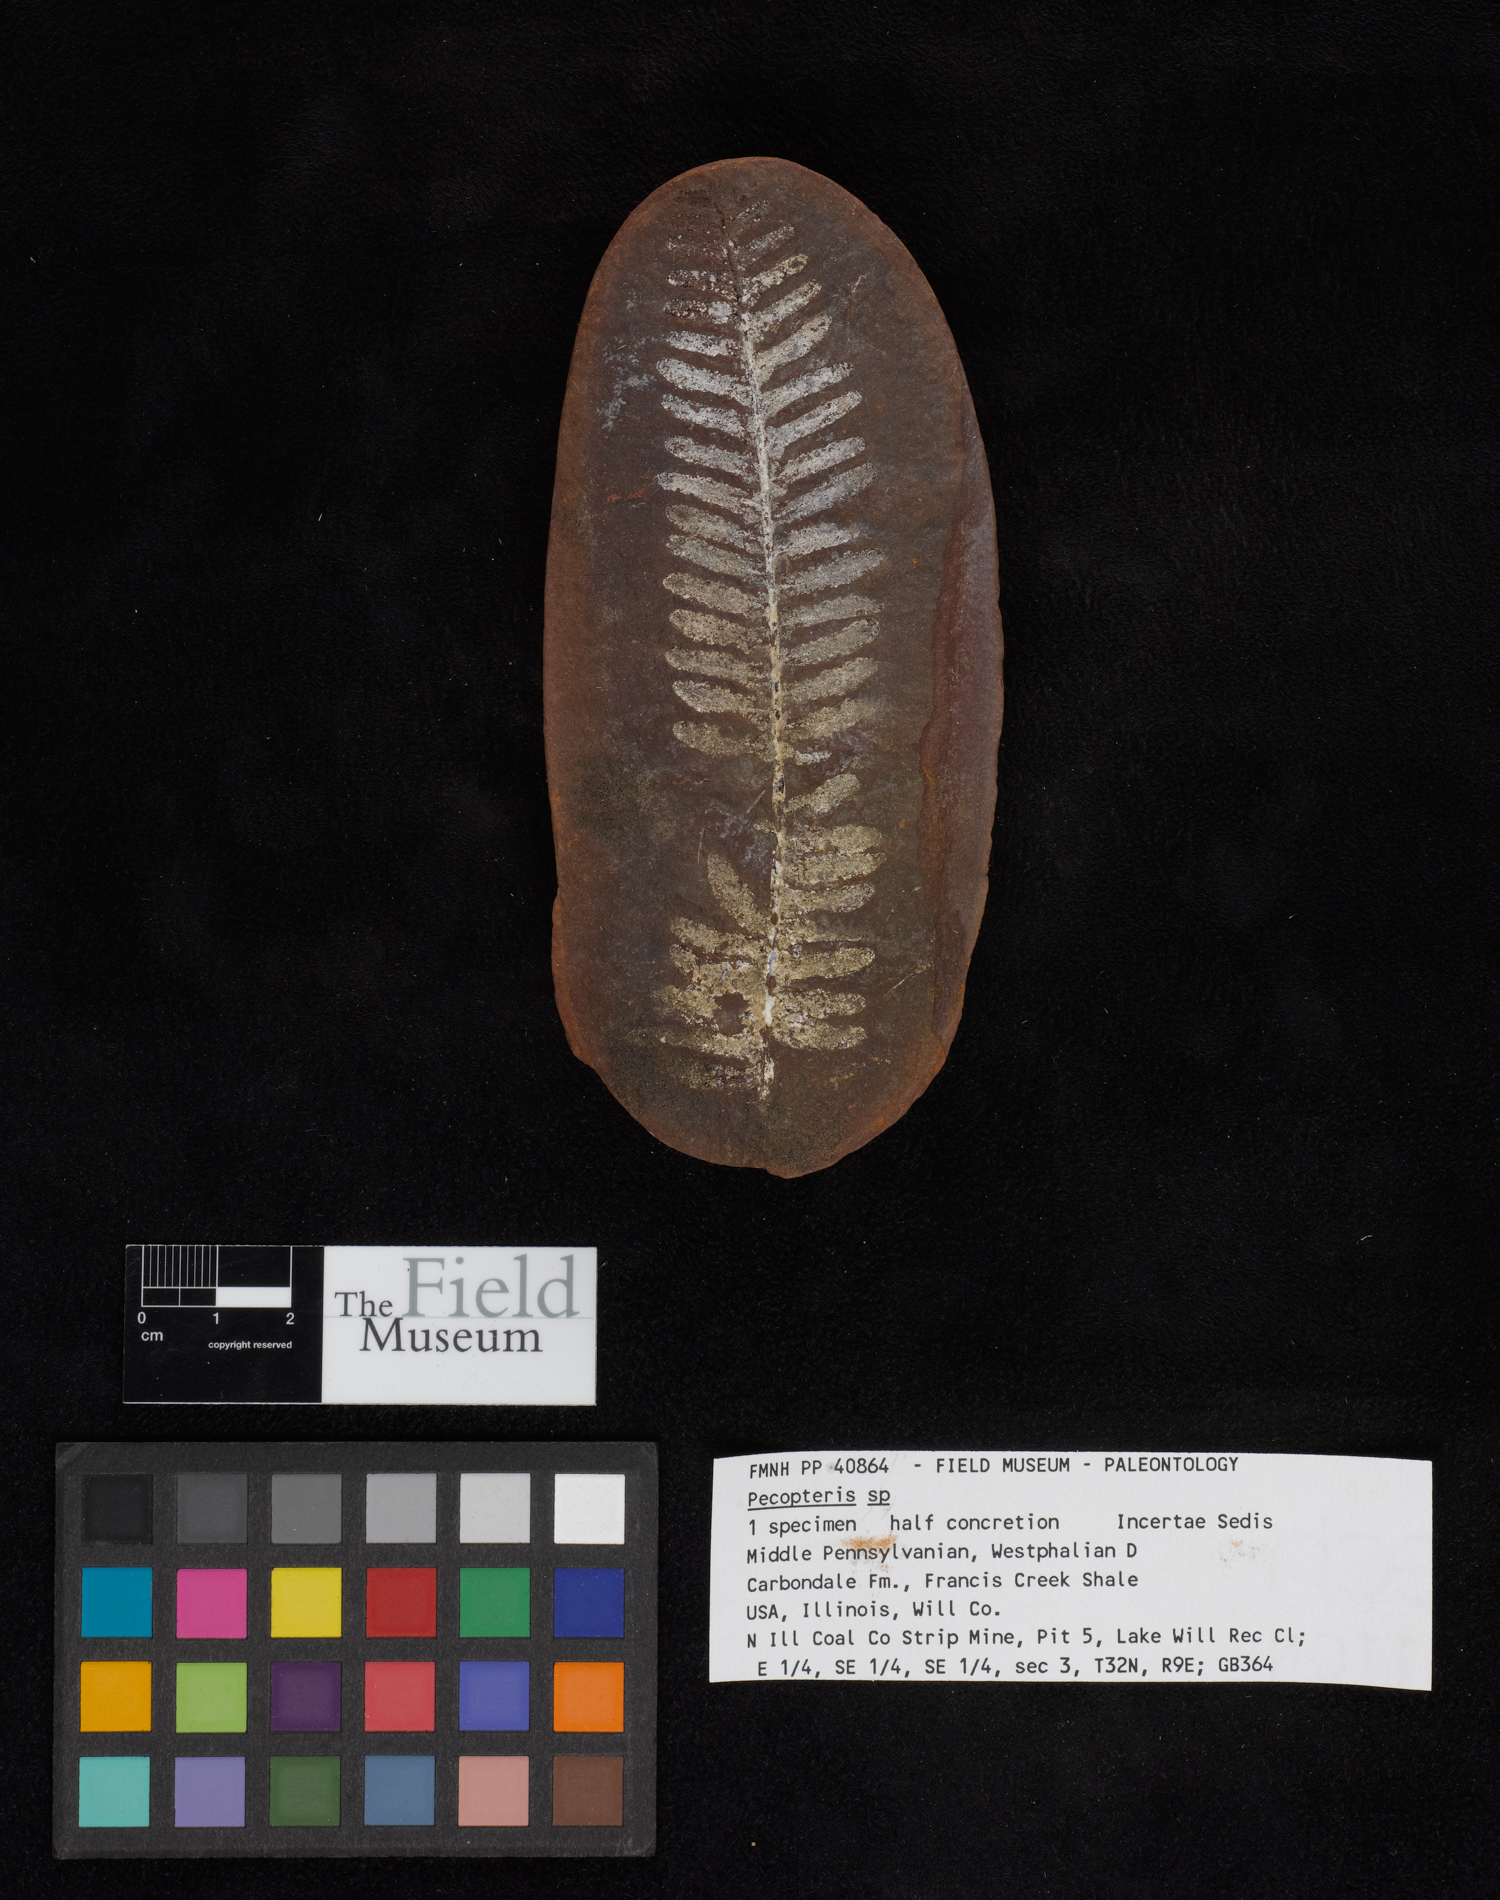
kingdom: Plantae
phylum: Tracheophyta
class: Polypodiopsida
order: Marattiales
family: Asterothecaceae
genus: Pecopteris
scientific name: Pecopteris
